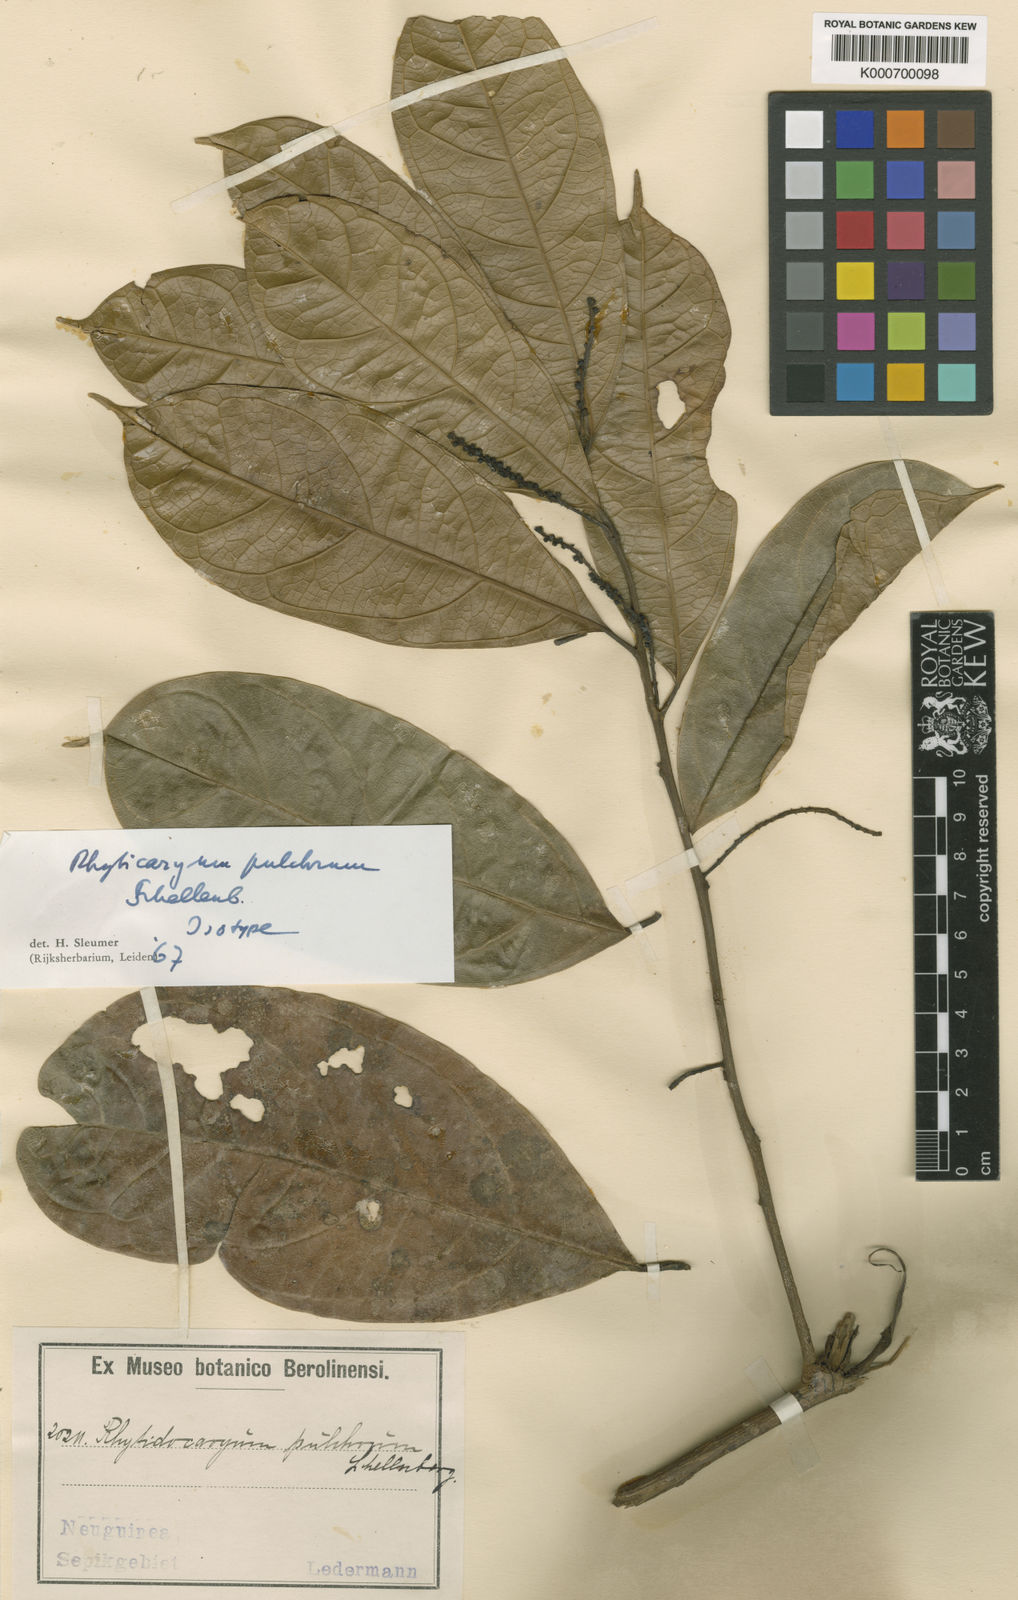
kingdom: Plantae
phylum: Tracheophyta
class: Magnoliopsida
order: Icacinales
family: Icacinaceae
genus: Ryticaryum
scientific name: Ryticaryum
